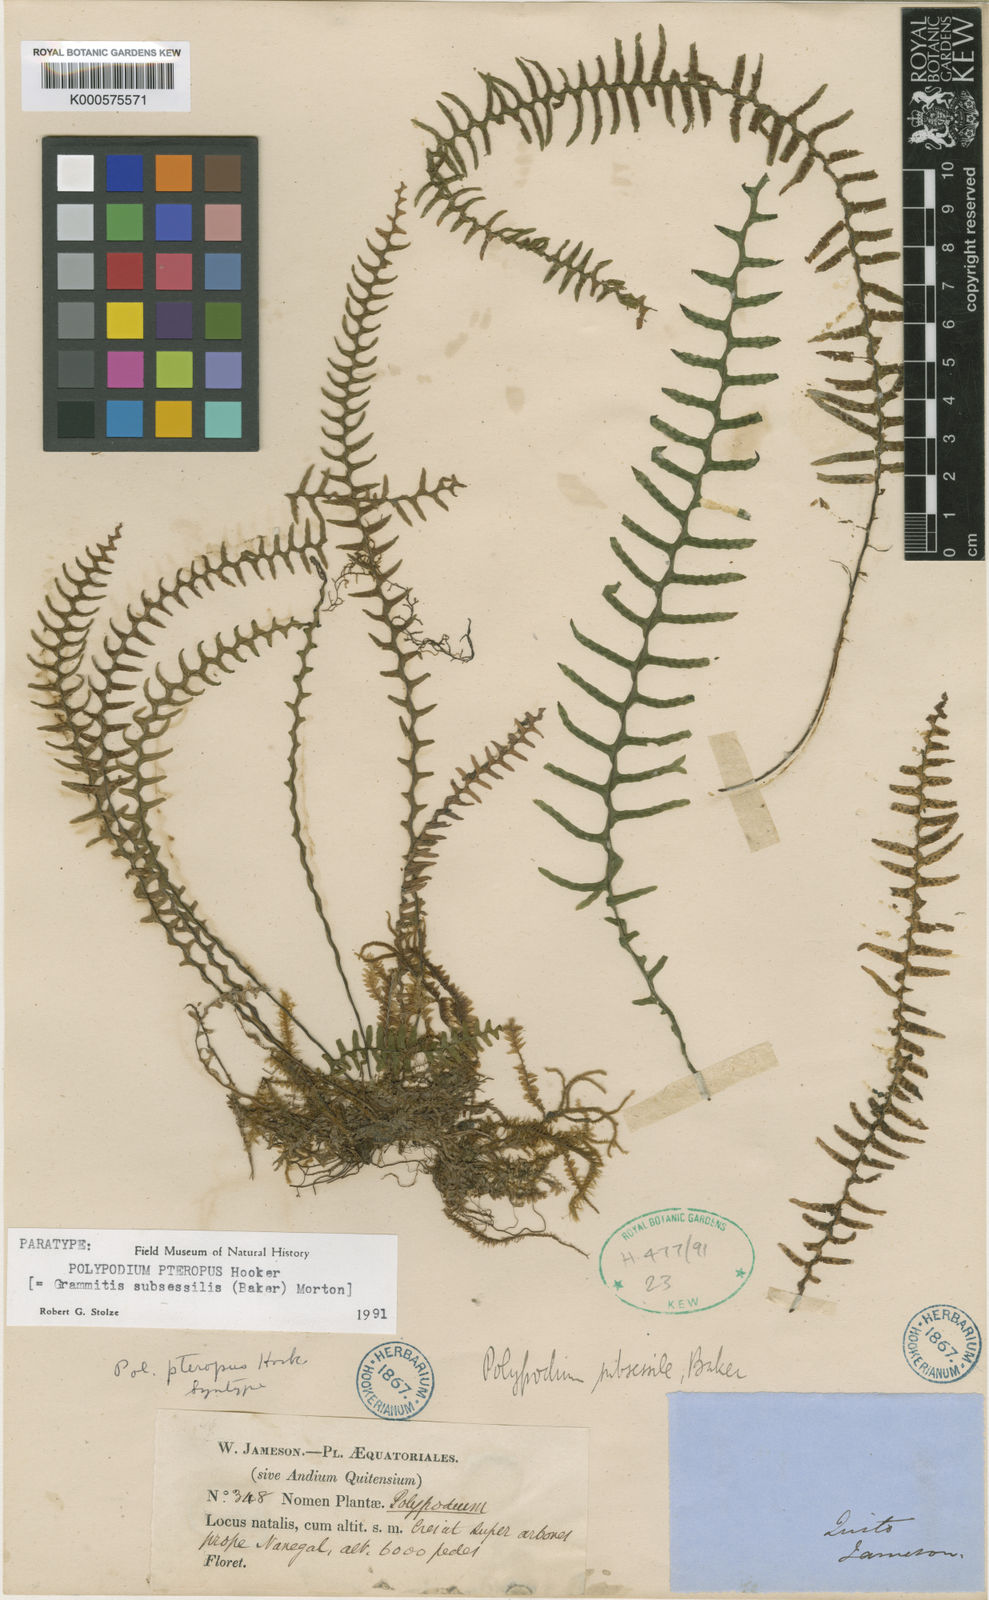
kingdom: Plantae
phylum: Tracheophyta
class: Polypodiopsida
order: Polypodiales
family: Polypodiaceae
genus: Lellingeria
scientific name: Lellingeria subsessilis
